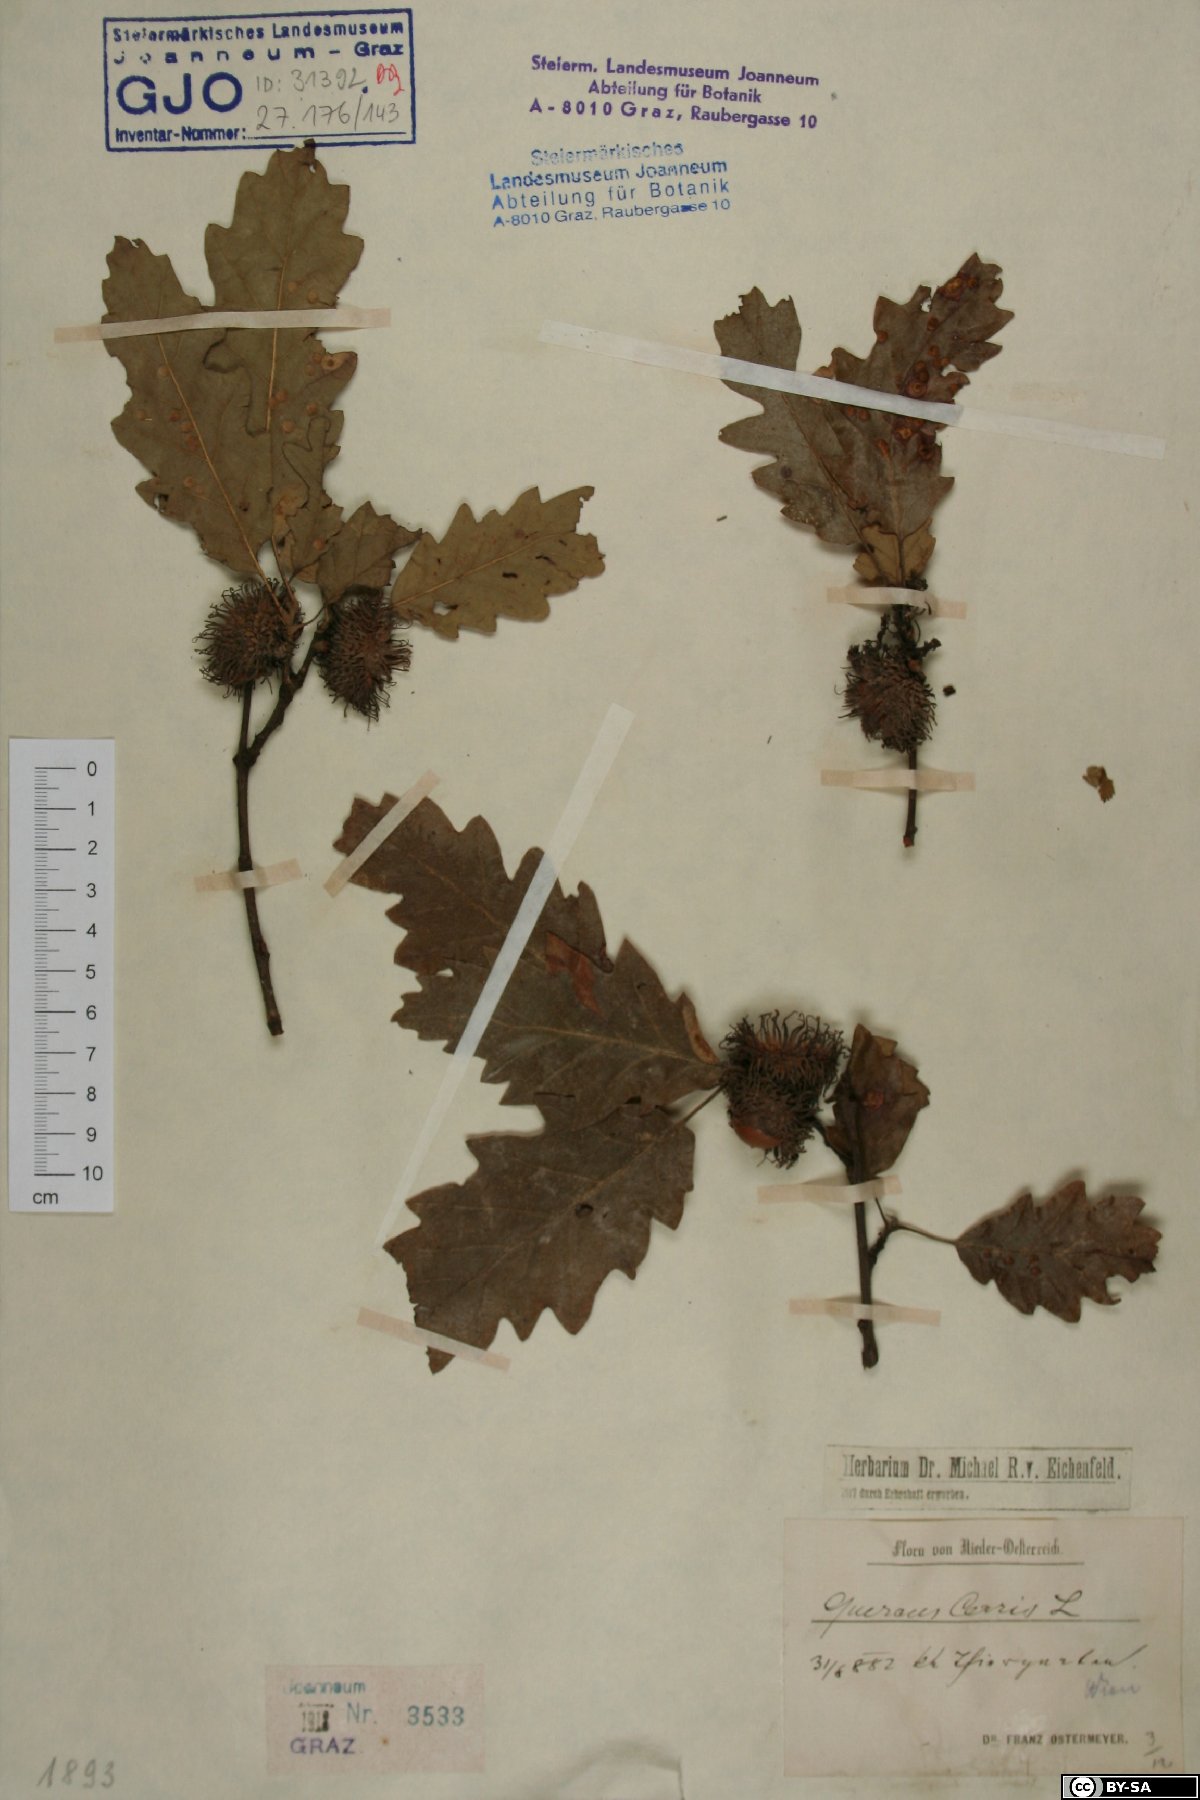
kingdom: Plantae
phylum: Tracheophyta
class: Magnoliopsida
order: Fagales
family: Fagaceae
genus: Quercus
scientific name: Quercus cerris
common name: Turkey oak
